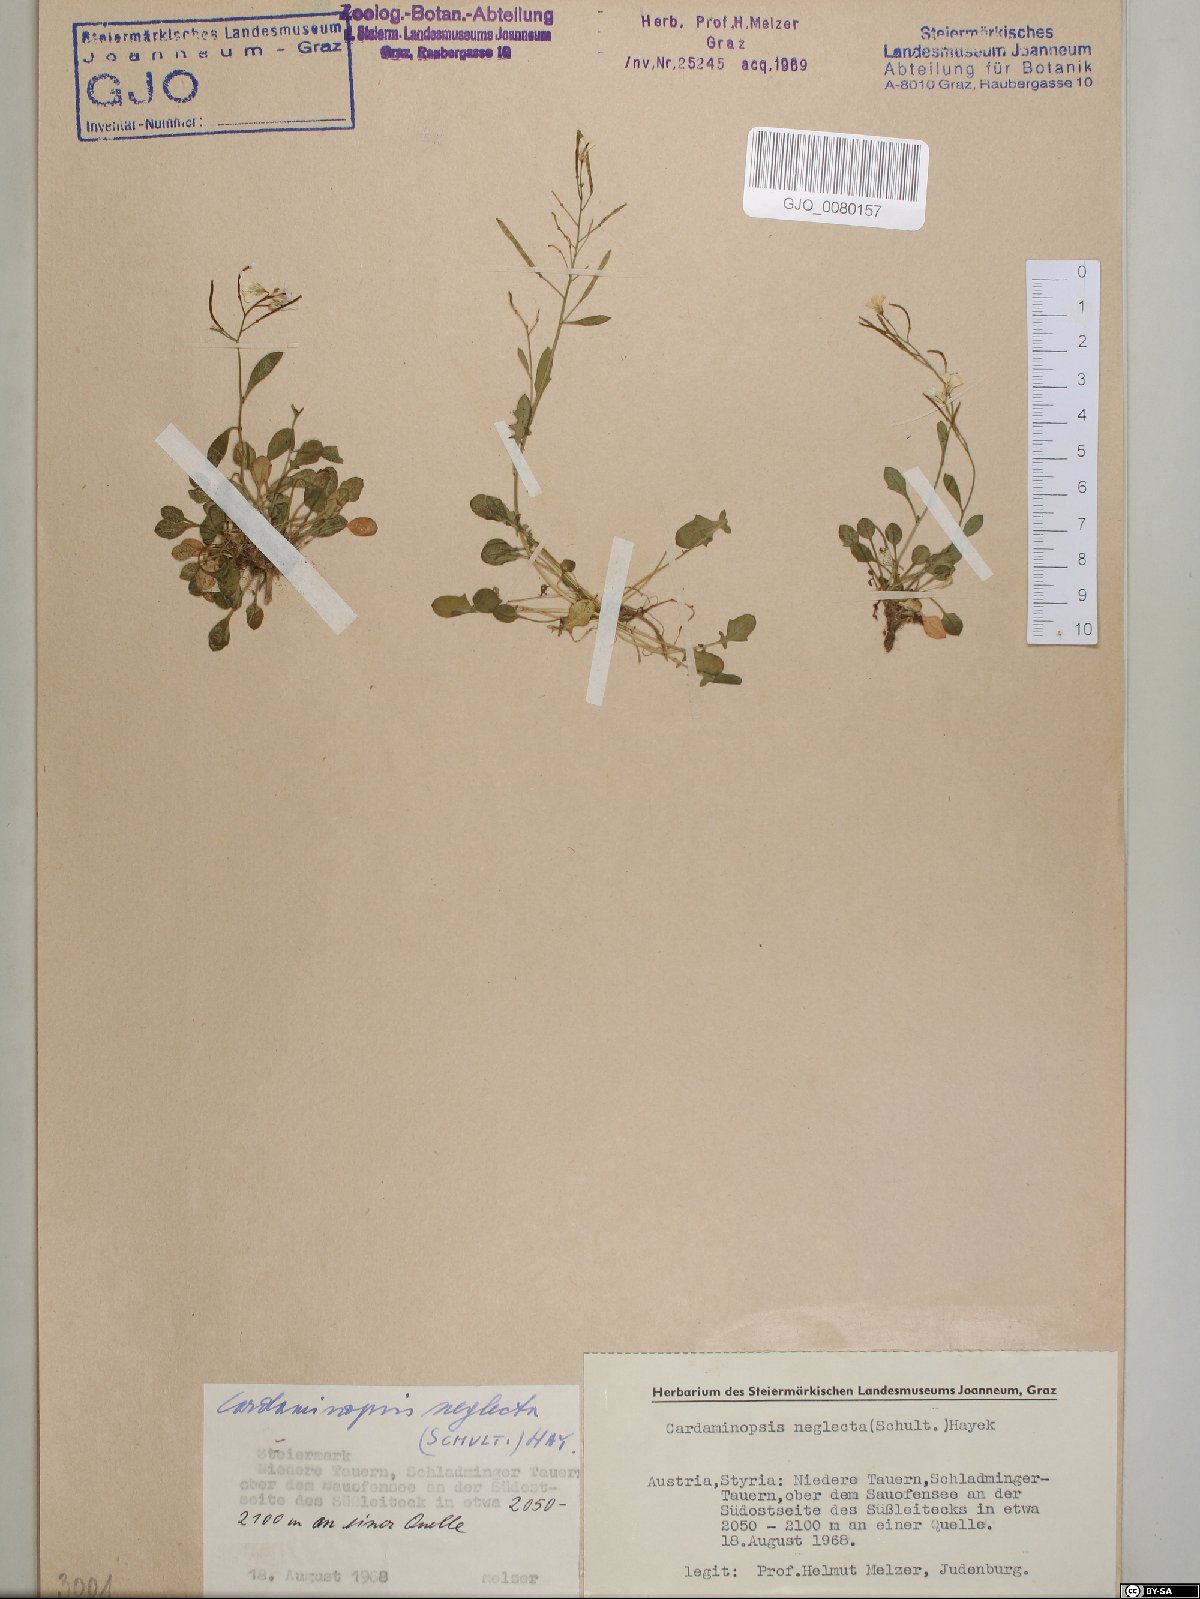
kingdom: Plantae
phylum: Tracheophyta
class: Magnoliopsida
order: Brassicales
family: Brassicaceae
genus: Arabidopsis
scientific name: Arabidopsis neglecta
